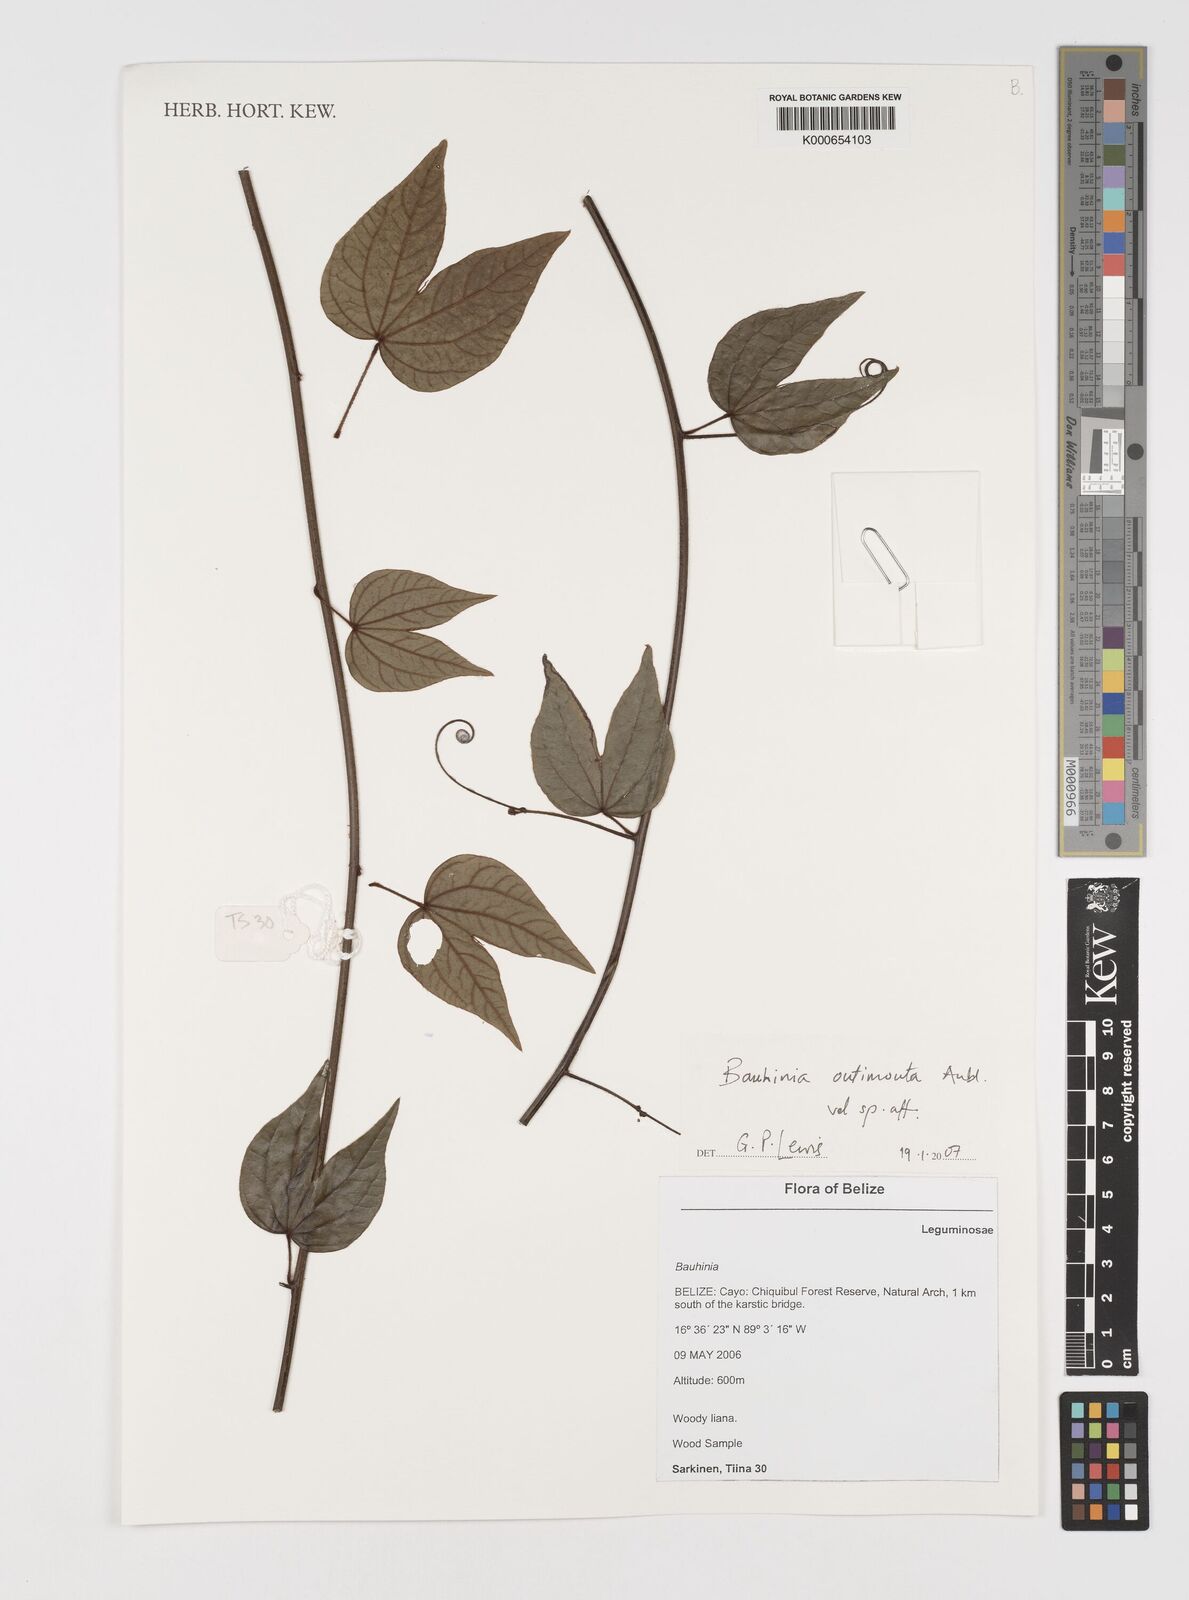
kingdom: Plantae
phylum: Tracheophyta
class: Magnoliopsida
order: Fabales
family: Fabaceae
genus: Schnella
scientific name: Schnella outimouta
